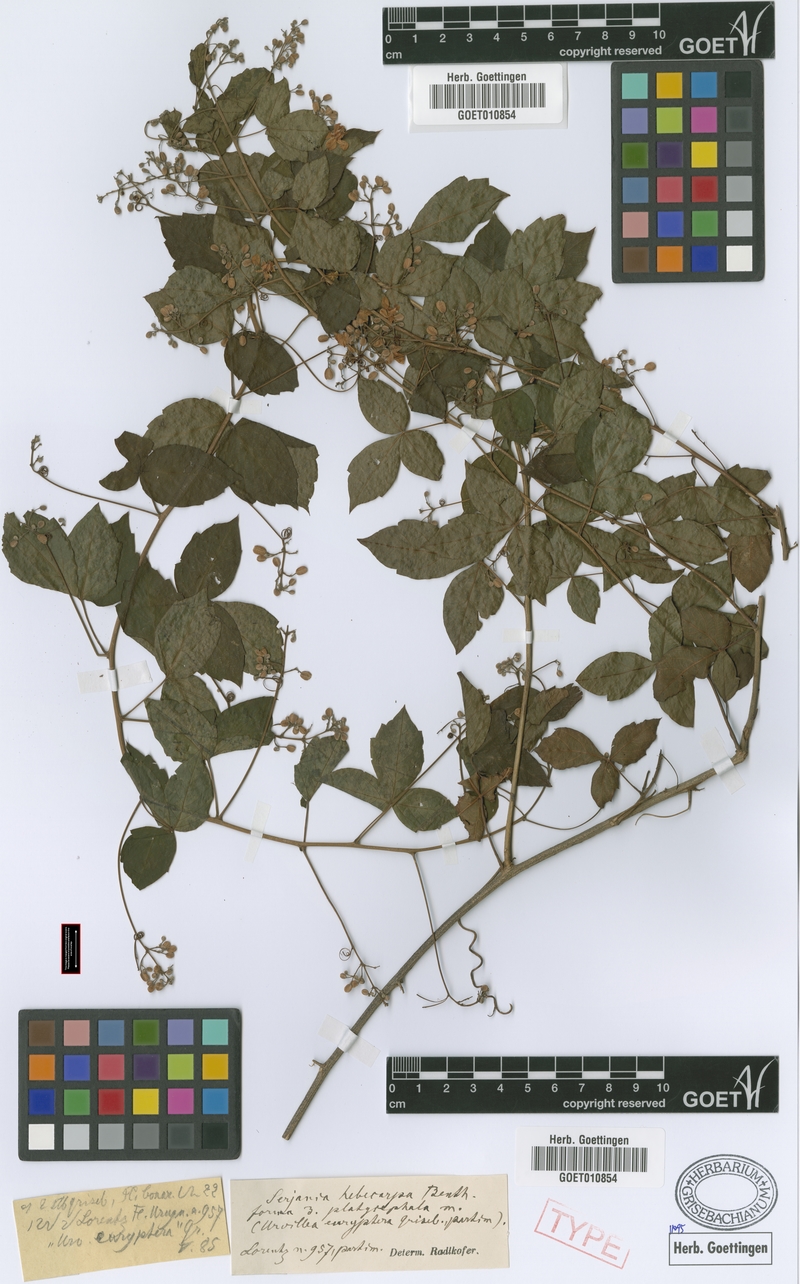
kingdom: Plantae
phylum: Tracheophyta
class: Magnoliopsida
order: Sapindales
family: Sapindaceae
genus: Serjania
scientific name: Serjania hebecarpa
